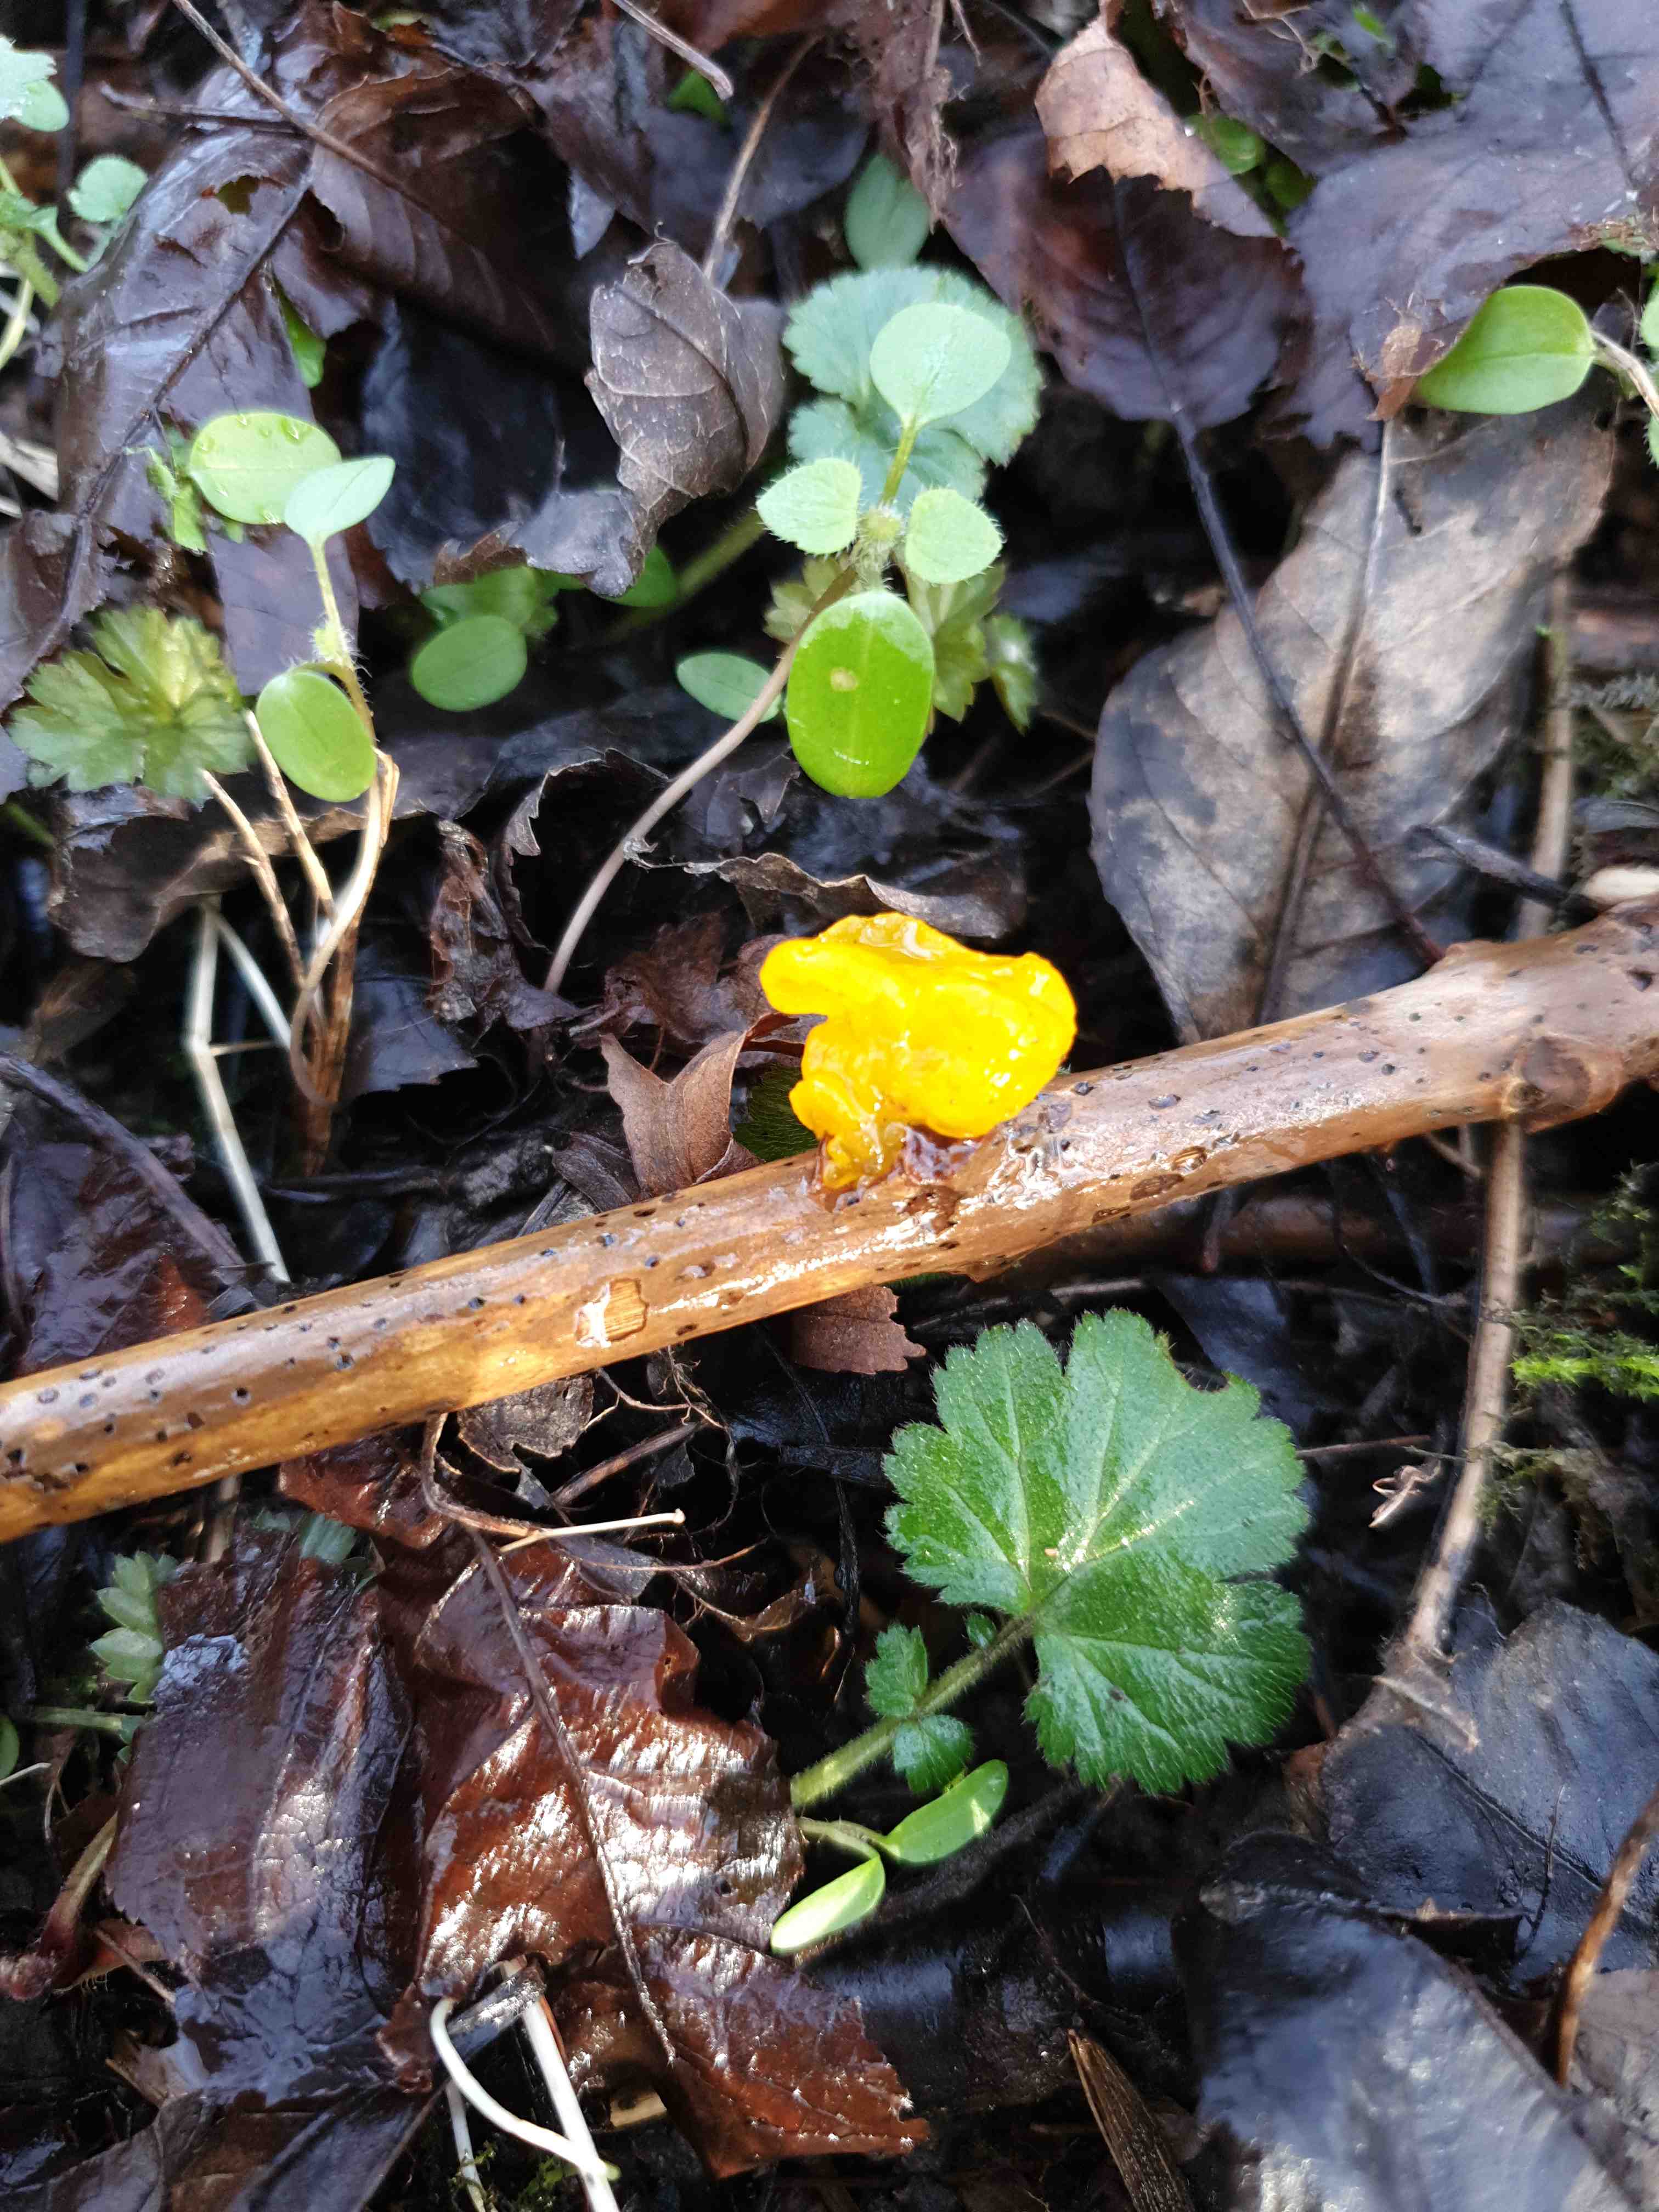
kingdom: Fungi
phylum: Basidiomycota
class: Tremellomycetes
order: Tremellales
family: Tremellaceae
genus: Tremella
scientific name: Tremella mesenterica
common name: gul bævresvamp
